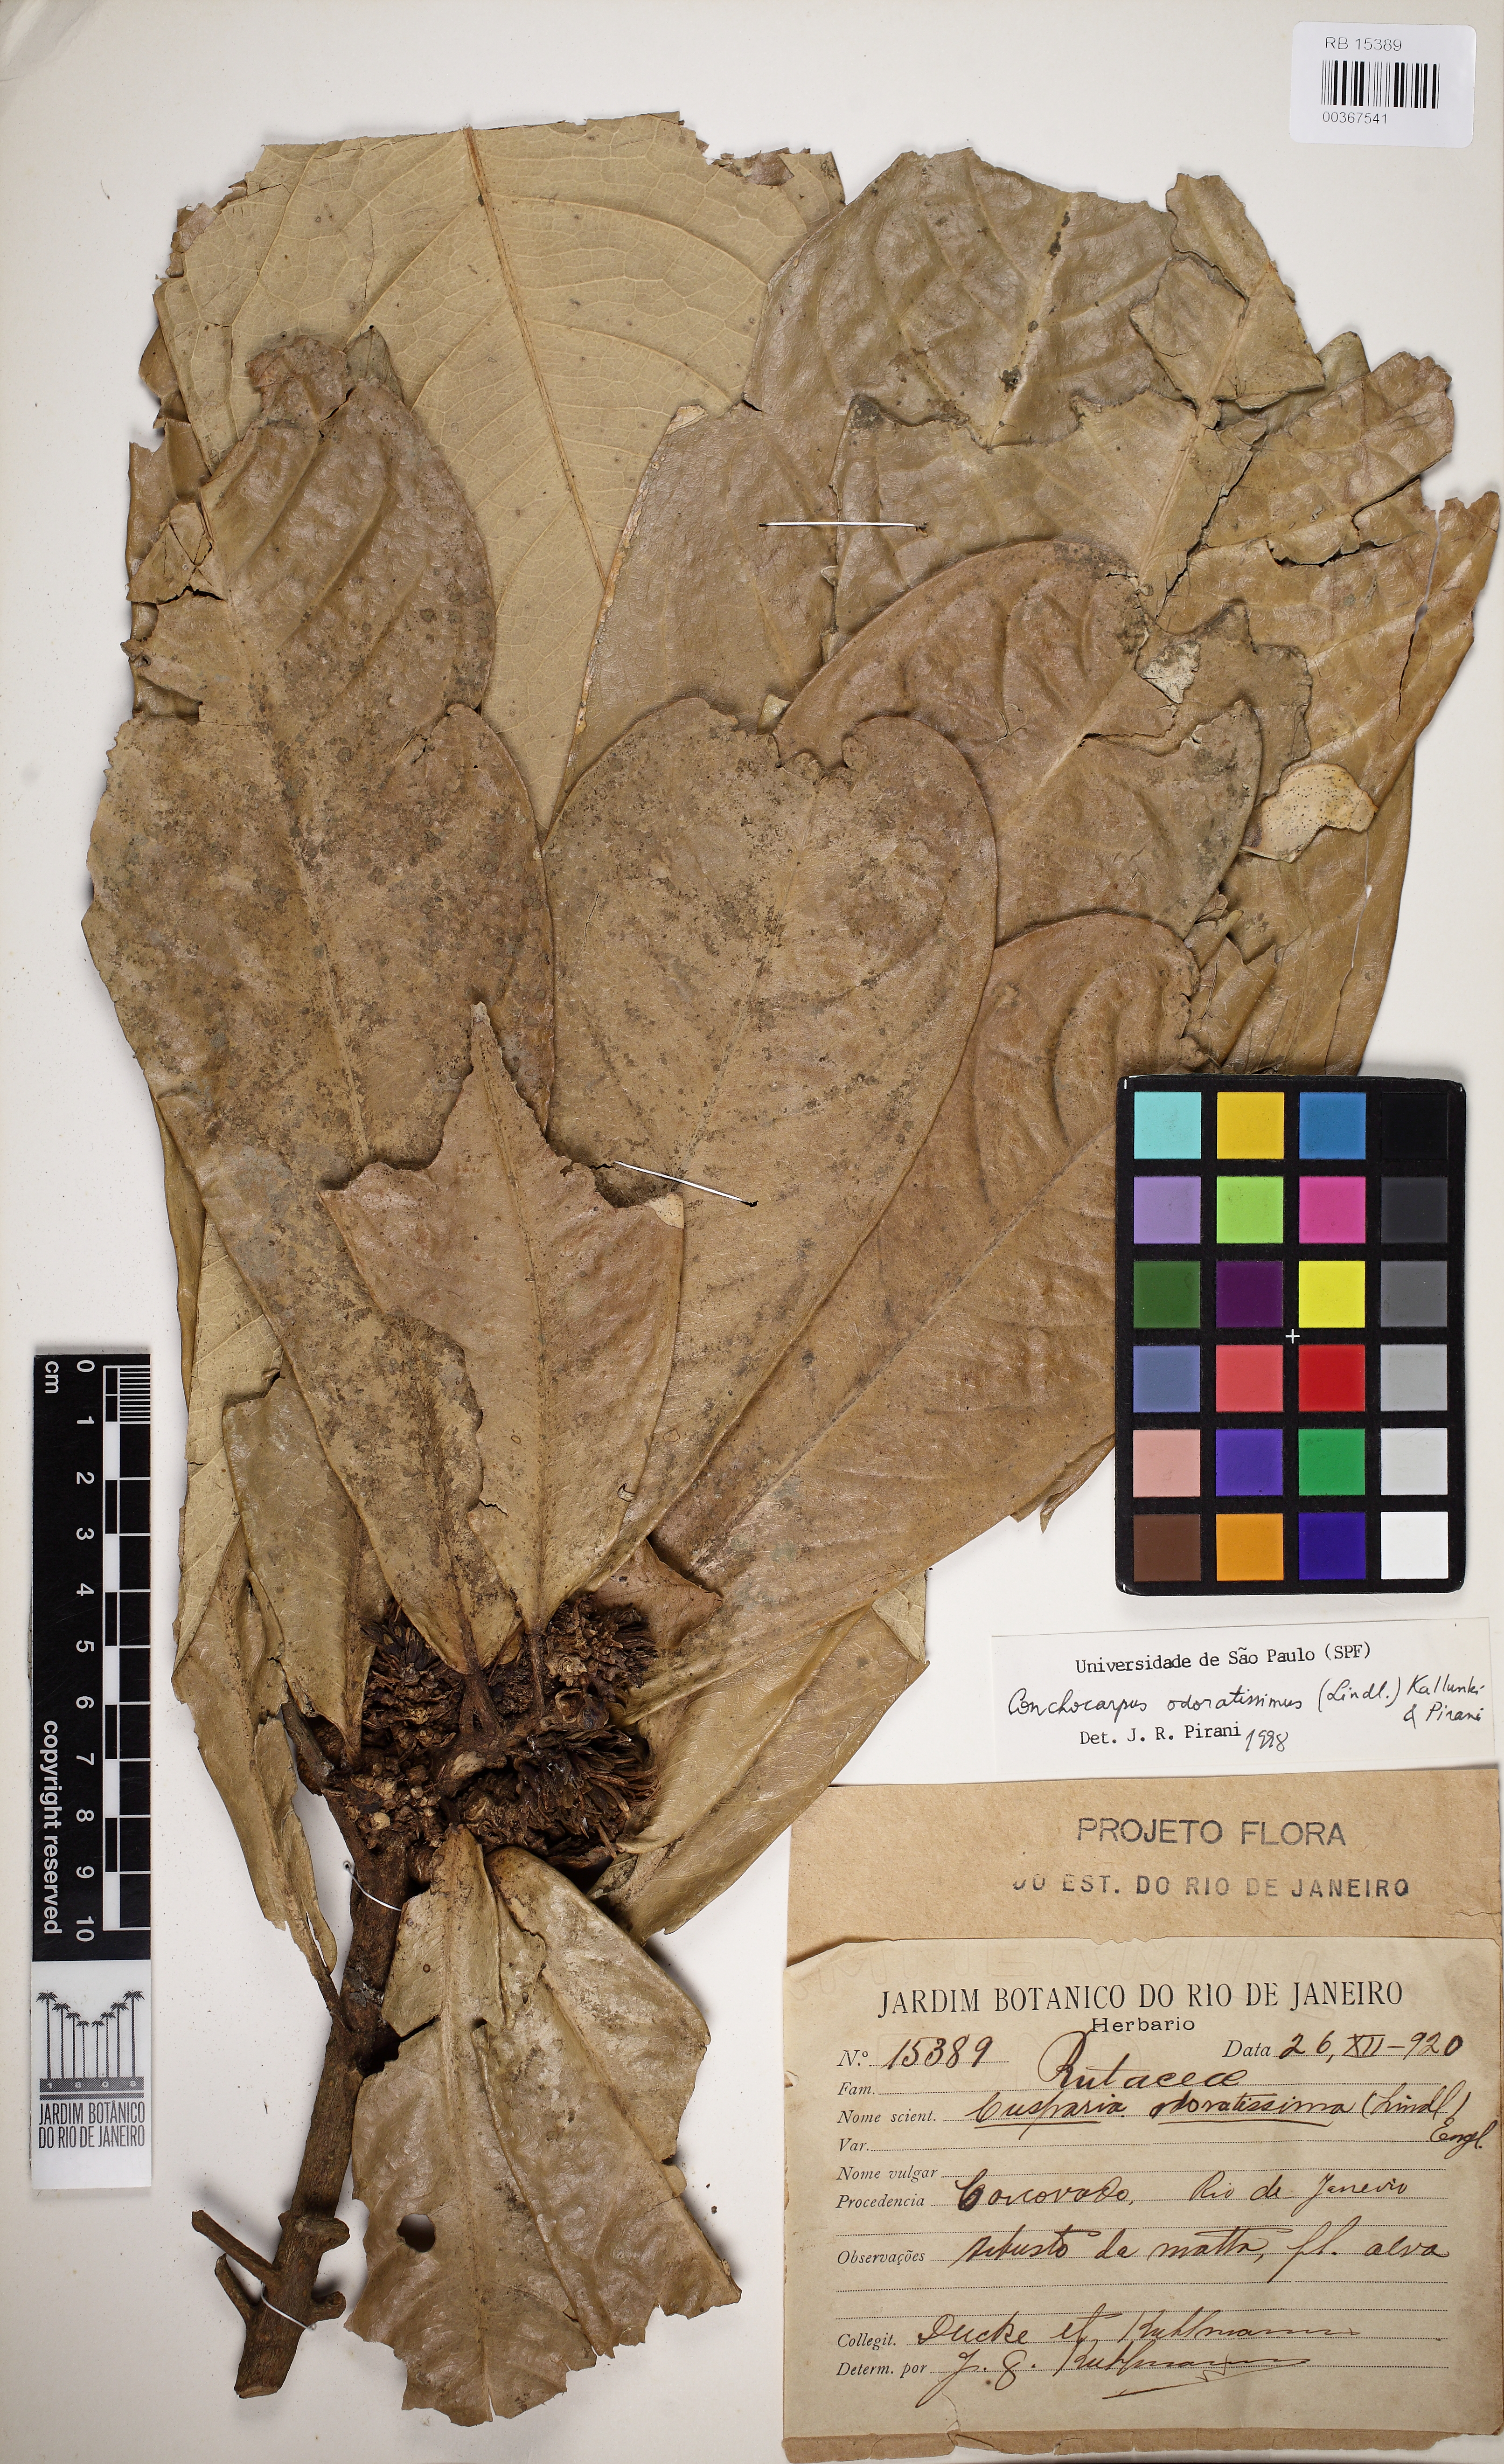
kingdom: Plantae
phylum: Tracheophyta
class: Magnoliopsida
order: Sapindales
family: Rutaceae
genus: Conchocarpus
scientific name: Conchocarpus odoratissimus
